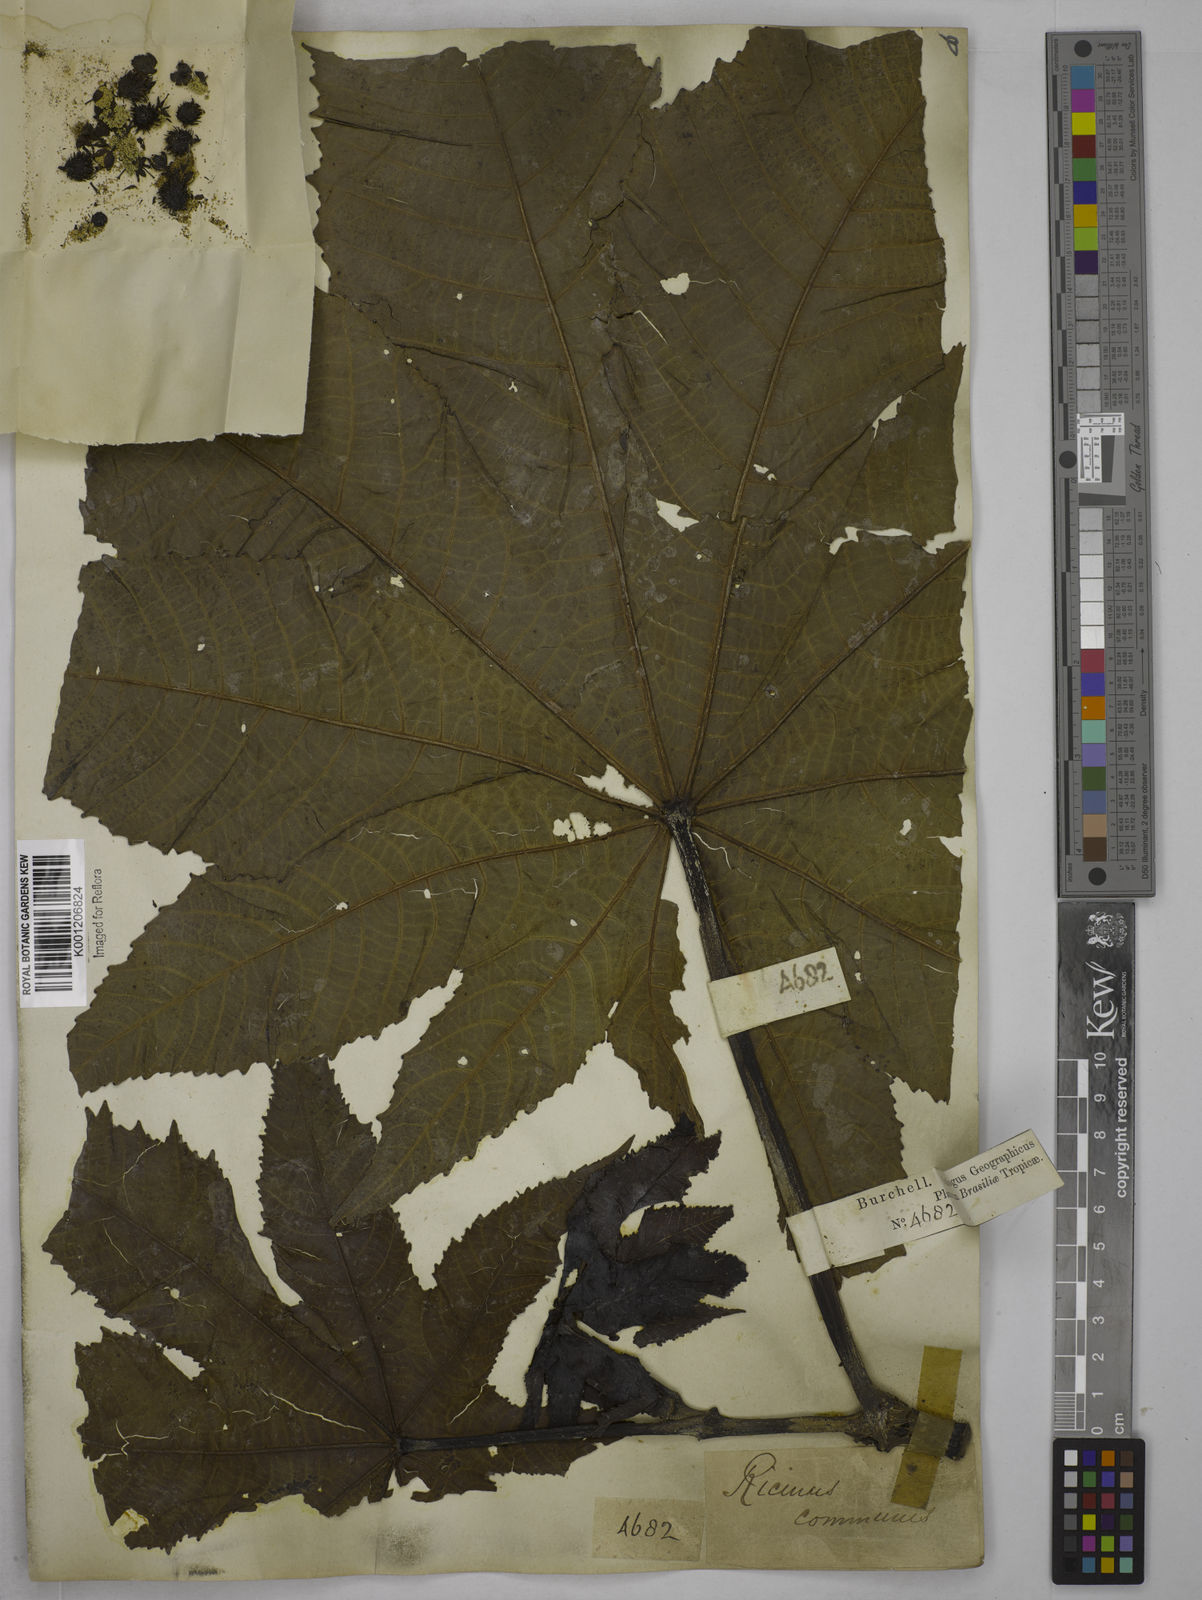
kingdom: Plantae
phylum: Tracheophyta
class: Magnoliopsida
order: Malpighiales
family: Euphorbiaceae
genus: Ricinus
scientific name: Ricinus communis
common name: Castor-oil-plant
